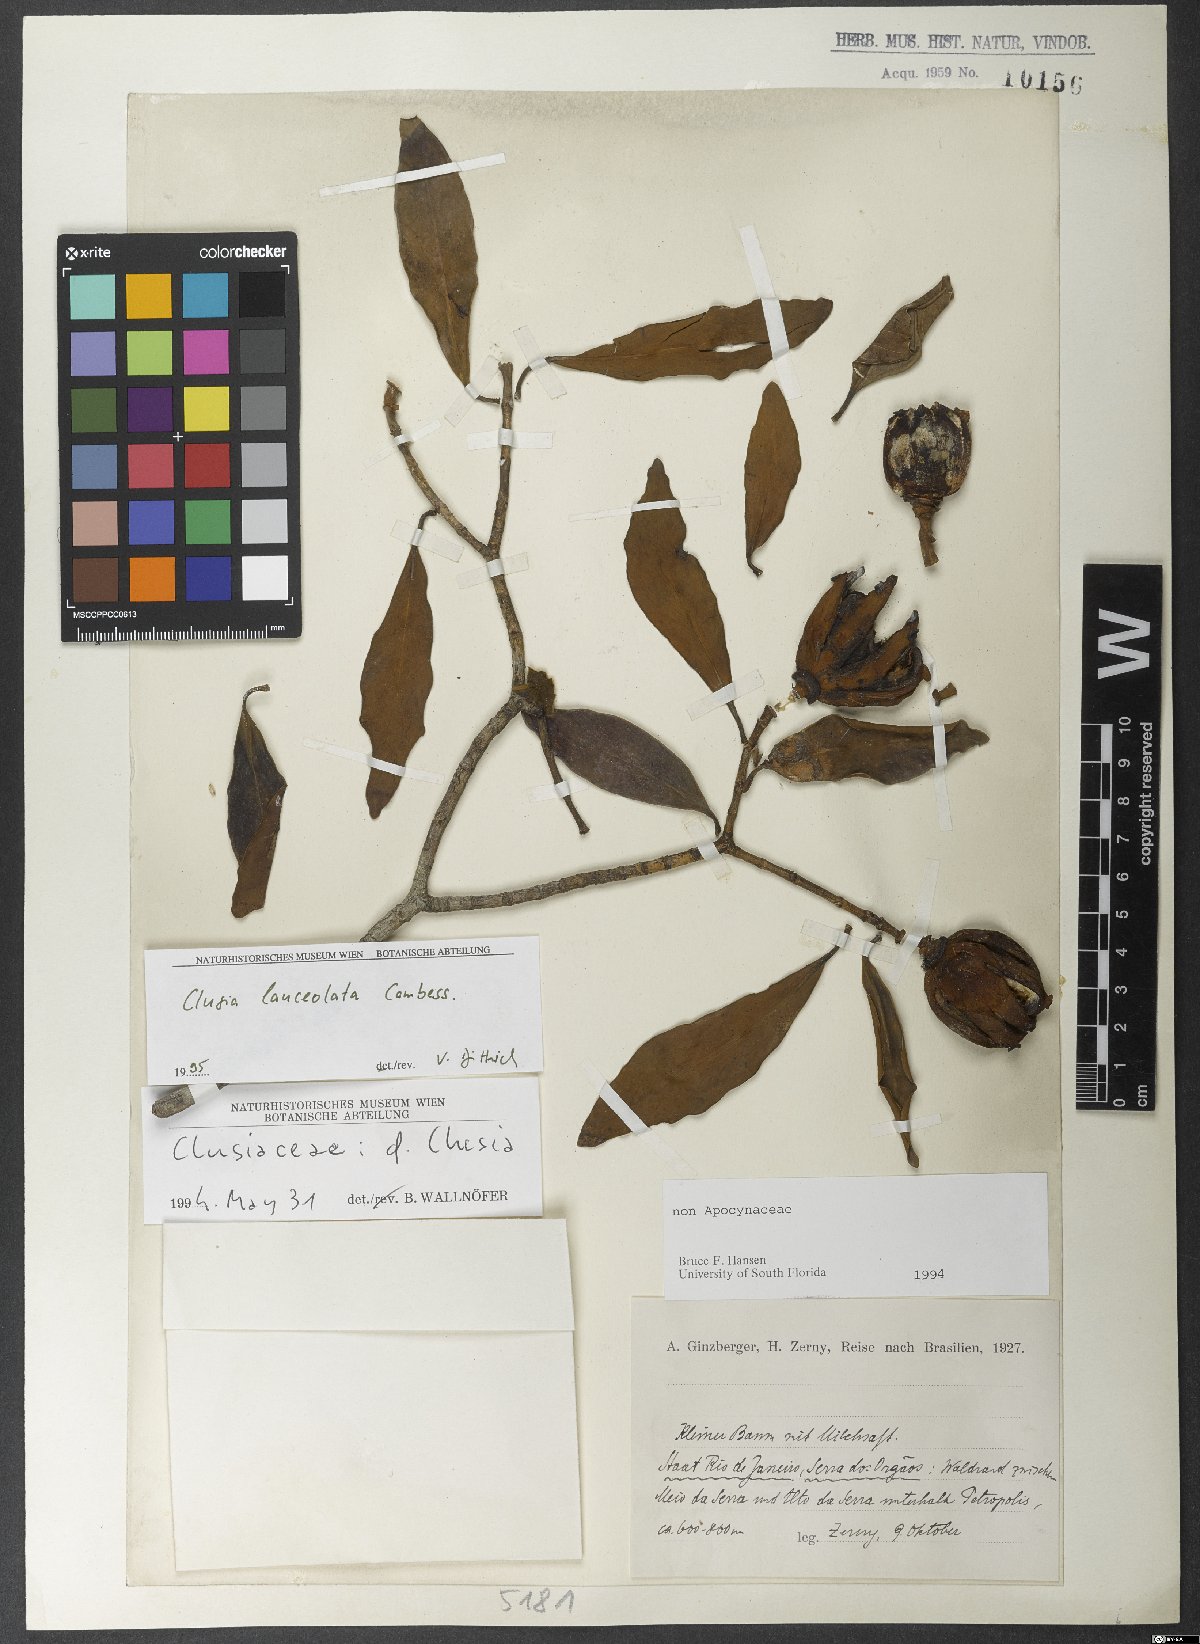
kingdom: Plantae
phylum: Tracheophyta
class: Magnoliopsida
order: Malpighiales
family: Clusiaceae
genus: Clusia
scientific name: Clusia lanceolata
